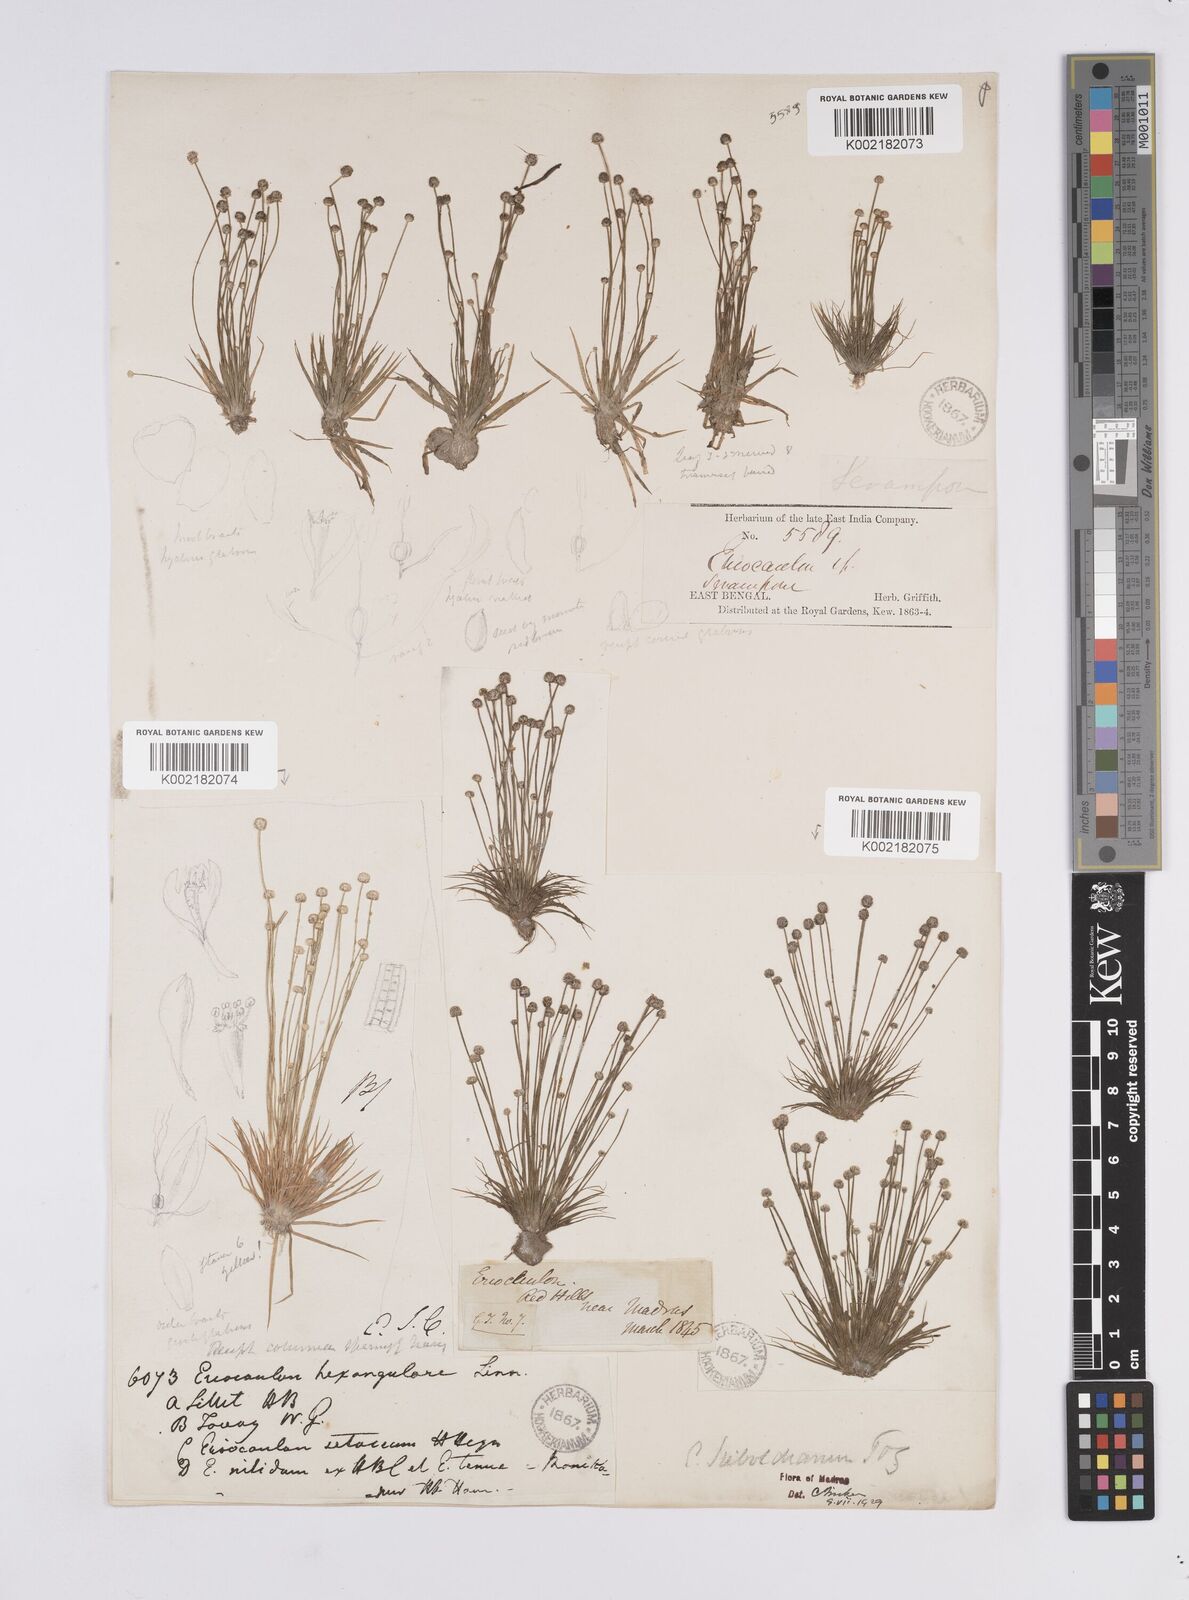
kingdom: Plantae
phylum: Tracheophyta
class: Liliopsida
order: Poales
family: Eriocaulaceae
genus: Eriocaulon
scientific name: Eriocaulon cinereum
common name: Ashy pipewort
